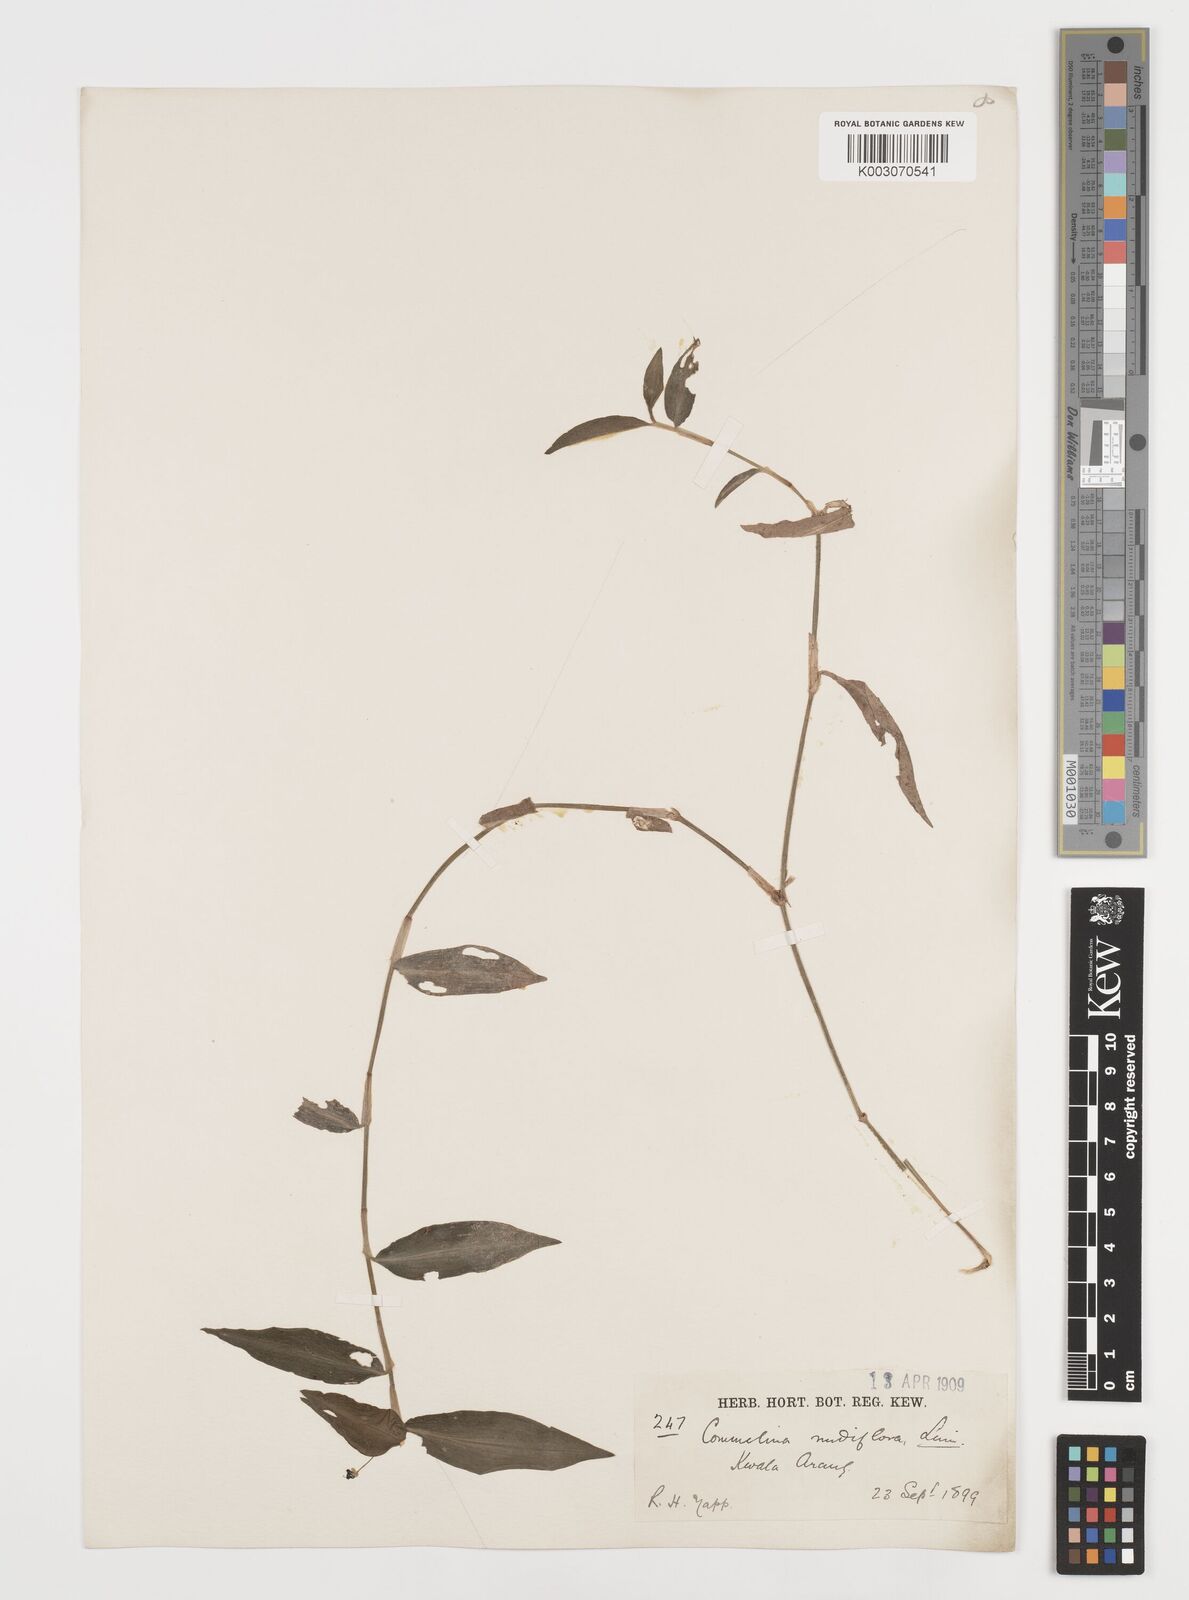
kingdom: Plantae
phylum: Tracheophyta
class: Liliopsida
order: Commelinales
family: Commelinaceae
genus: Commelina
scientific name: Commelina clavata
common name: Willow leaved dayflower
